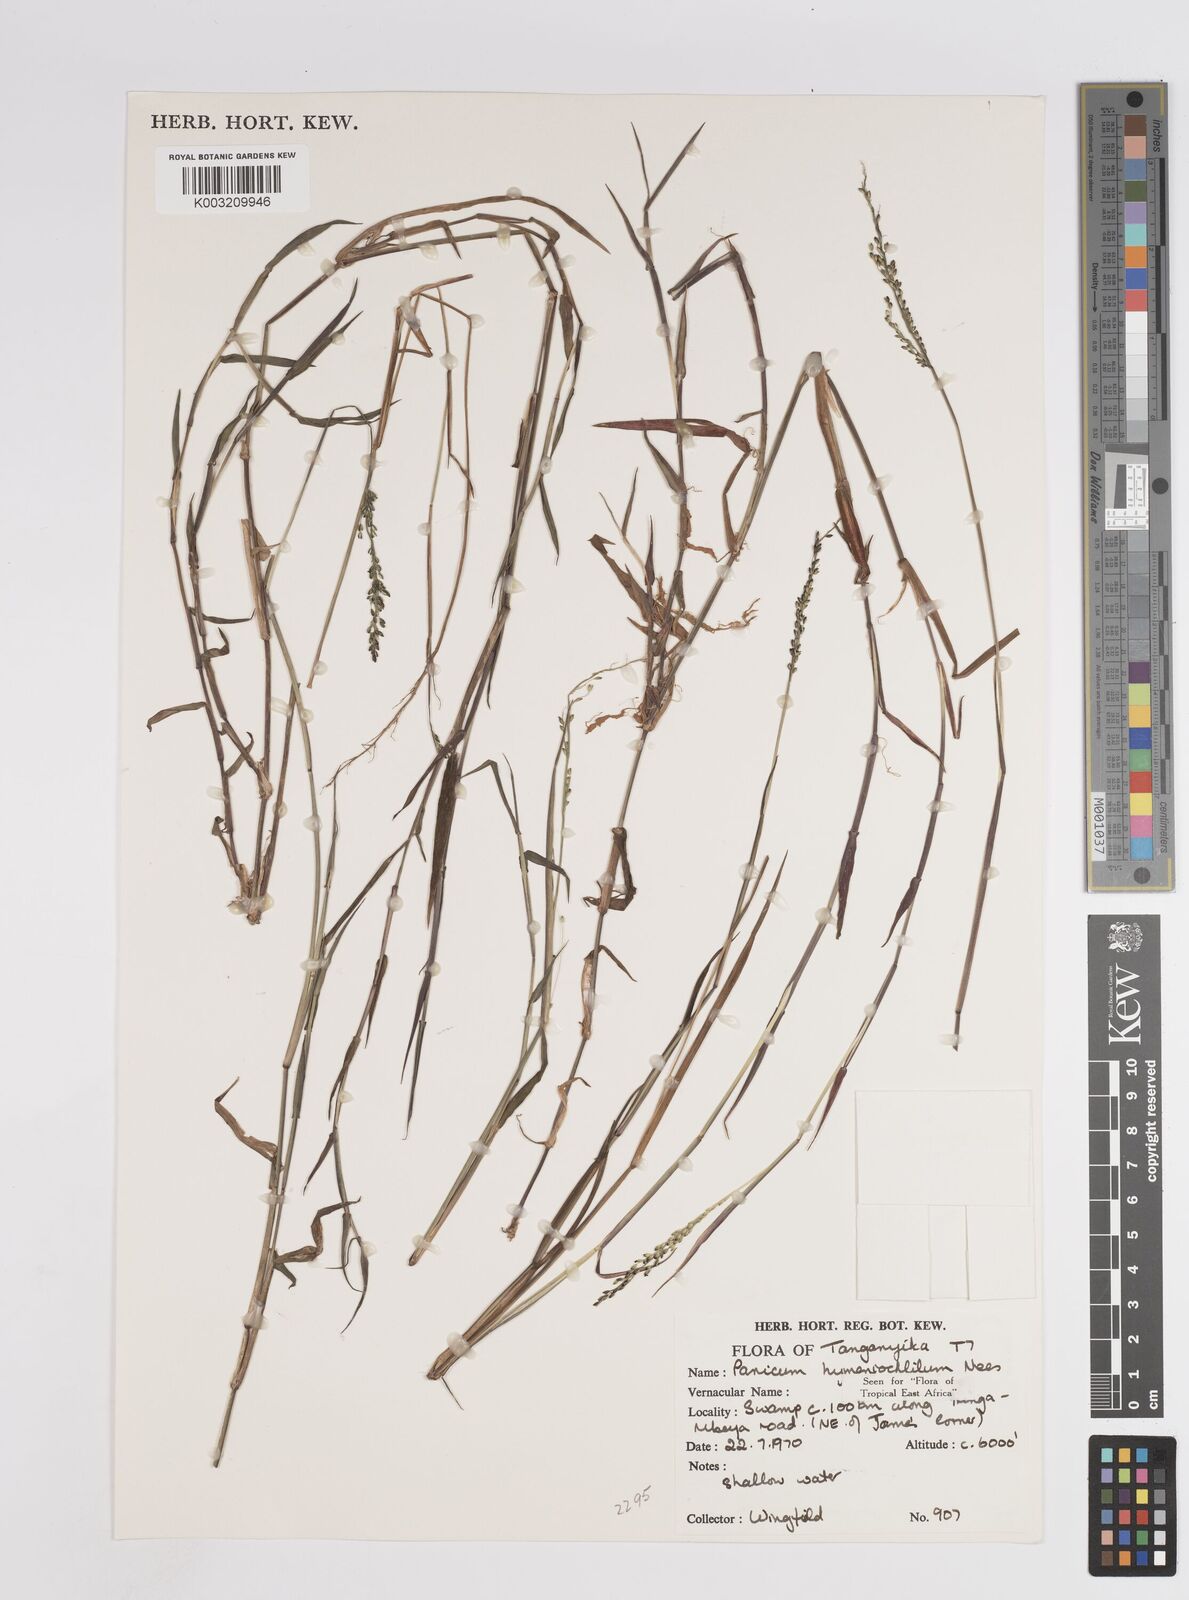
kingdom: Plantae
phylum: Tracheophyta
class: Liliopsida
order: Poales
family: Poaceae
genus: Adenochloa
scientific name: Adenochloa hymeniochila
